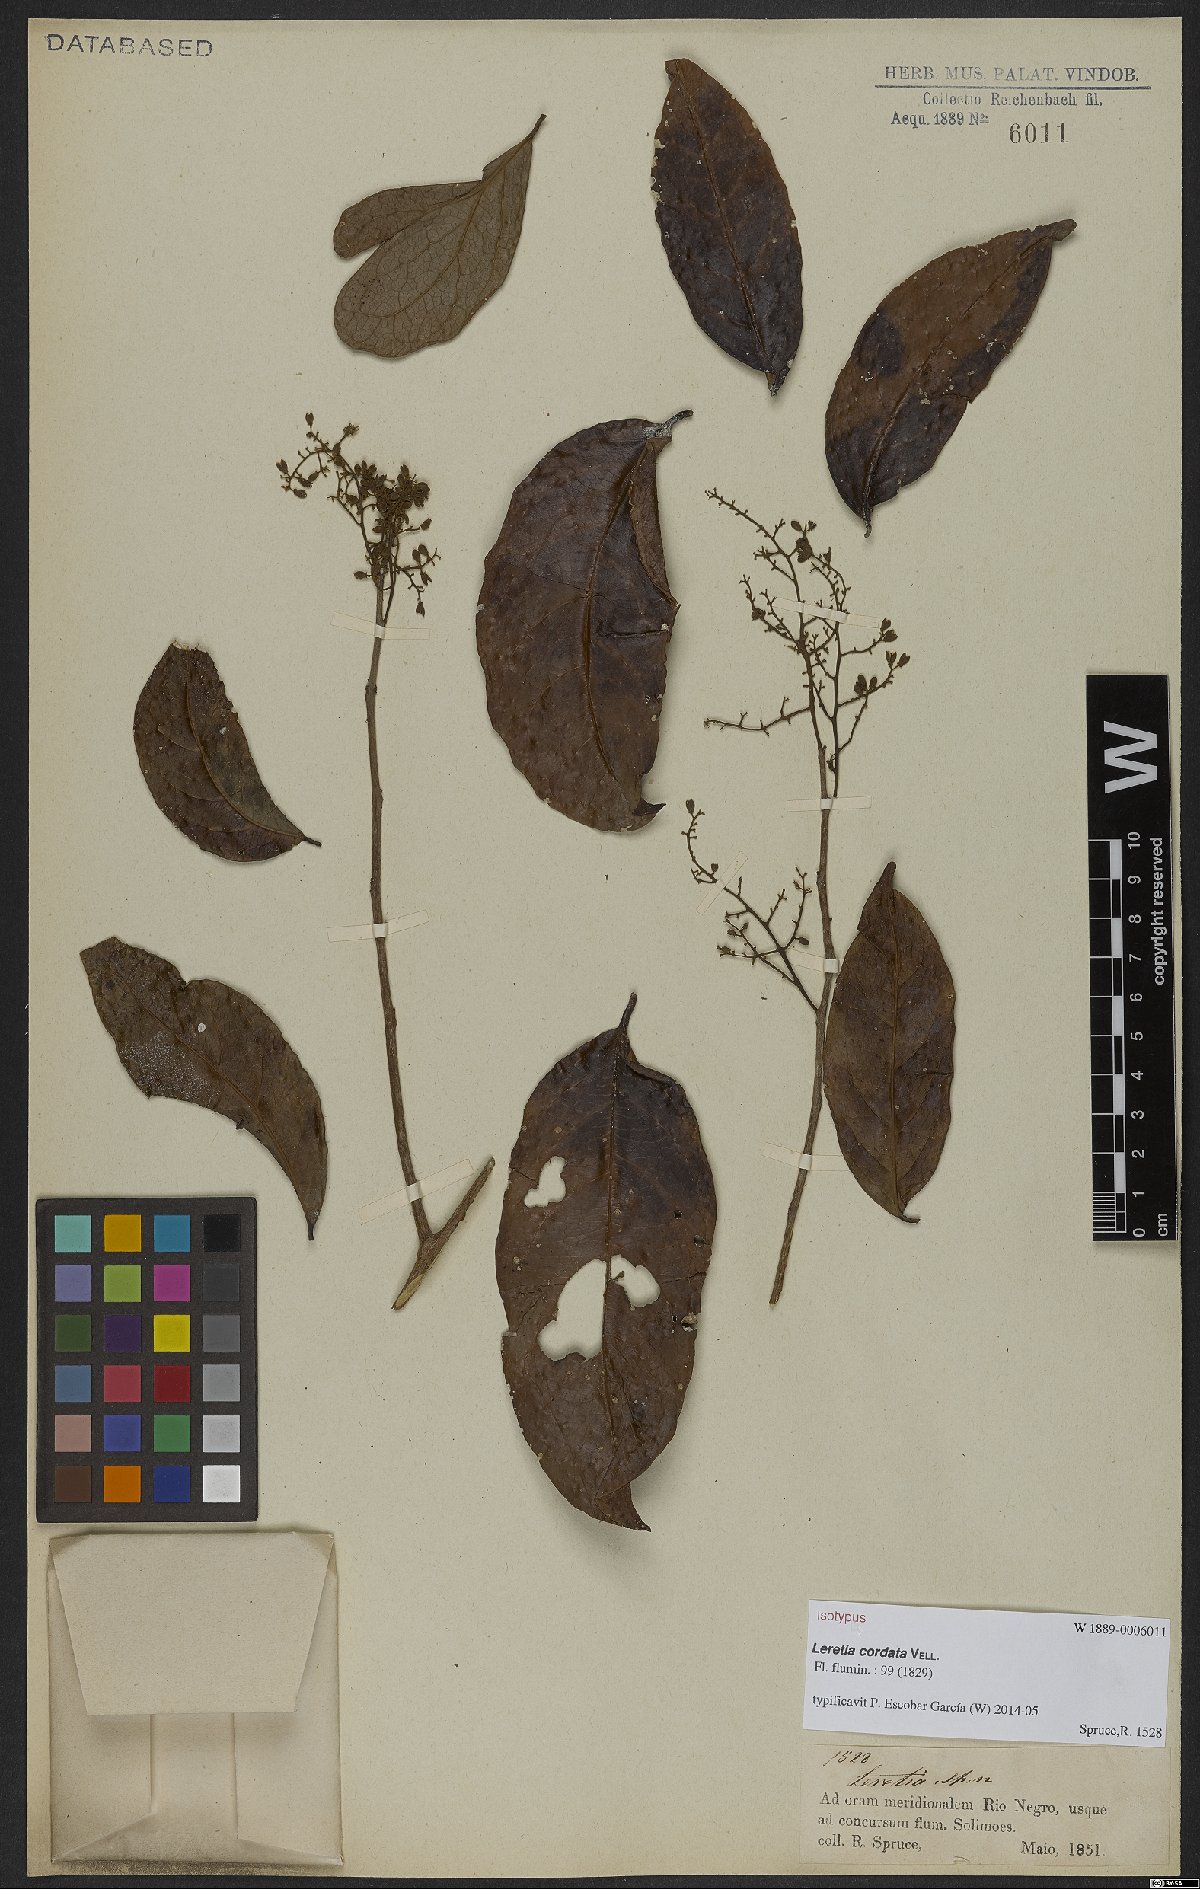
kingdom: Plantae
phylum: Tracheophyta
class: Magnoliopsida
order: Icacinales
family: Icacinaceae
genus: Leretia
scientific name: Leretia cordata
